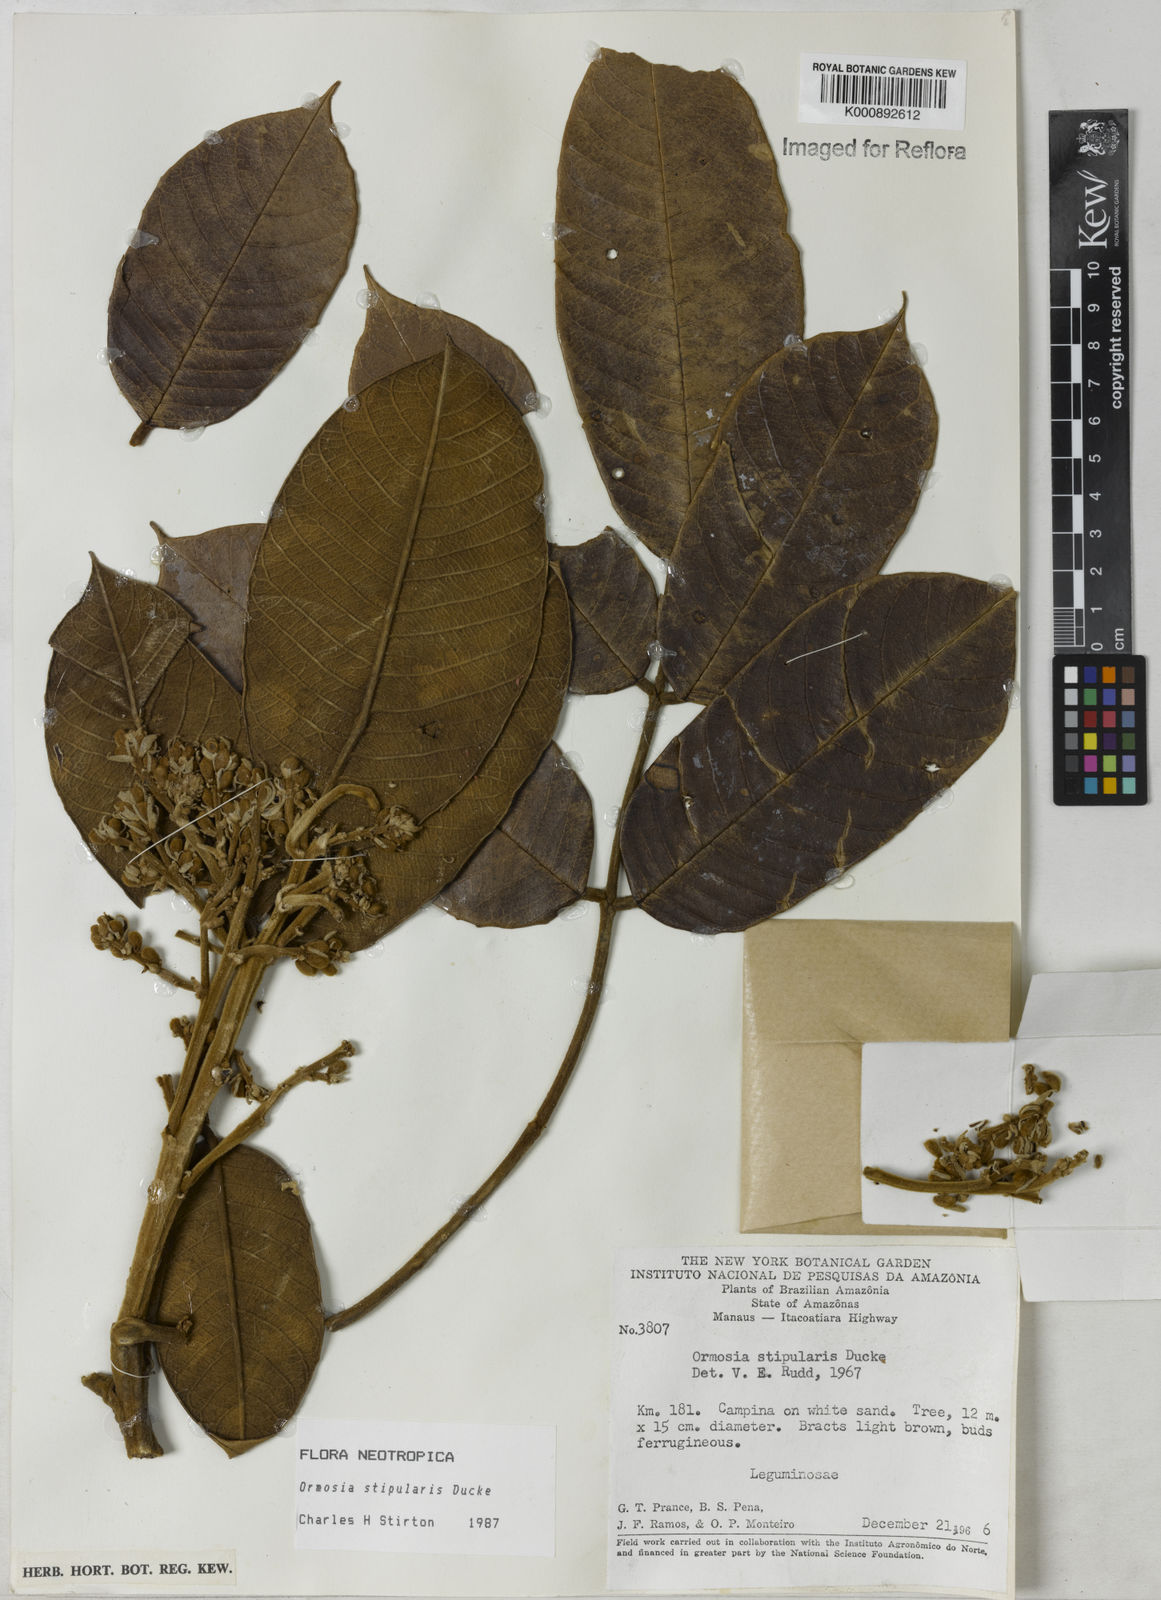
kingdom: Plantae
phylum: Tracheophyta
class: Magnoliopsida
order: Fabales
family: Fabaceae
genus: Ormosia
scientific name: Ormosia stipularis
